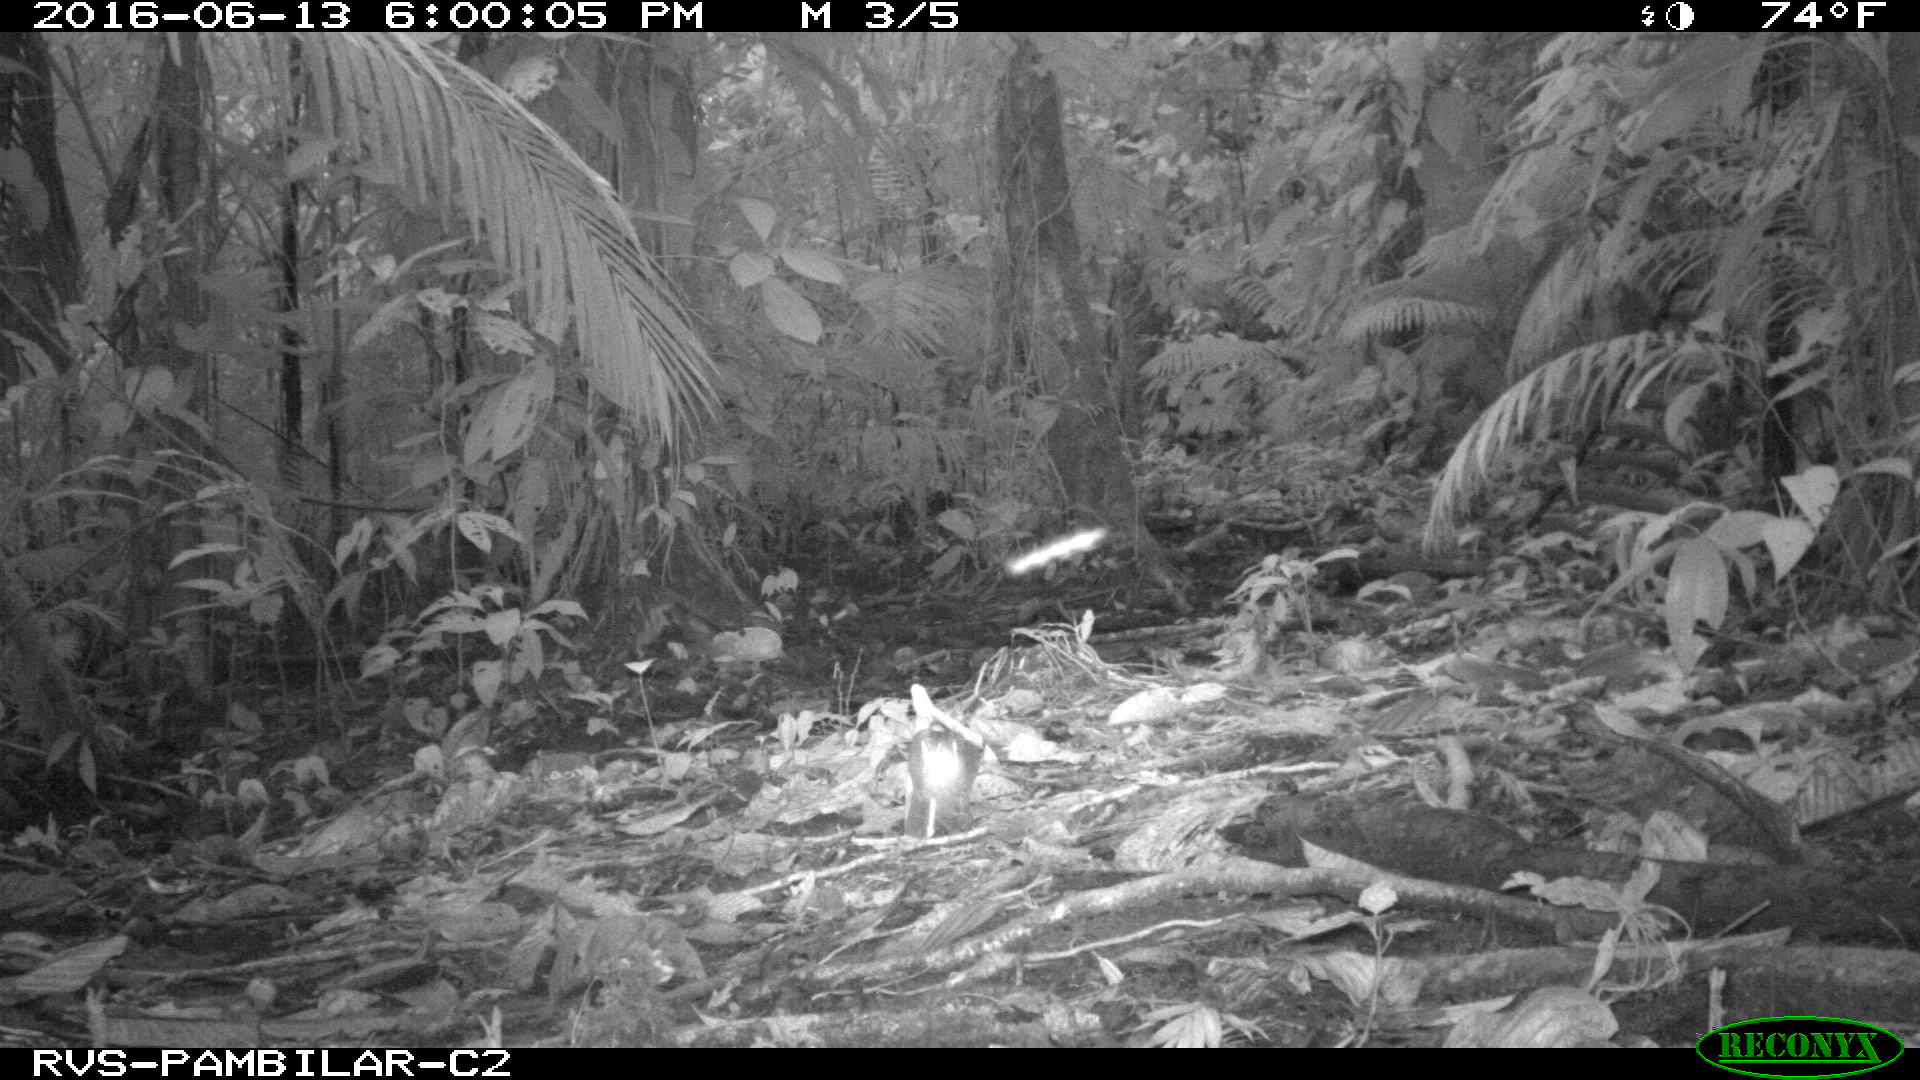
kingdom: Animalia
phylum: Chordata
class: Mammalia
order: Rodentia
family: Dasyproctidae
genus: Dasyprocta
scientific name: Dasyprocta punctata
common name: Central american agouti
